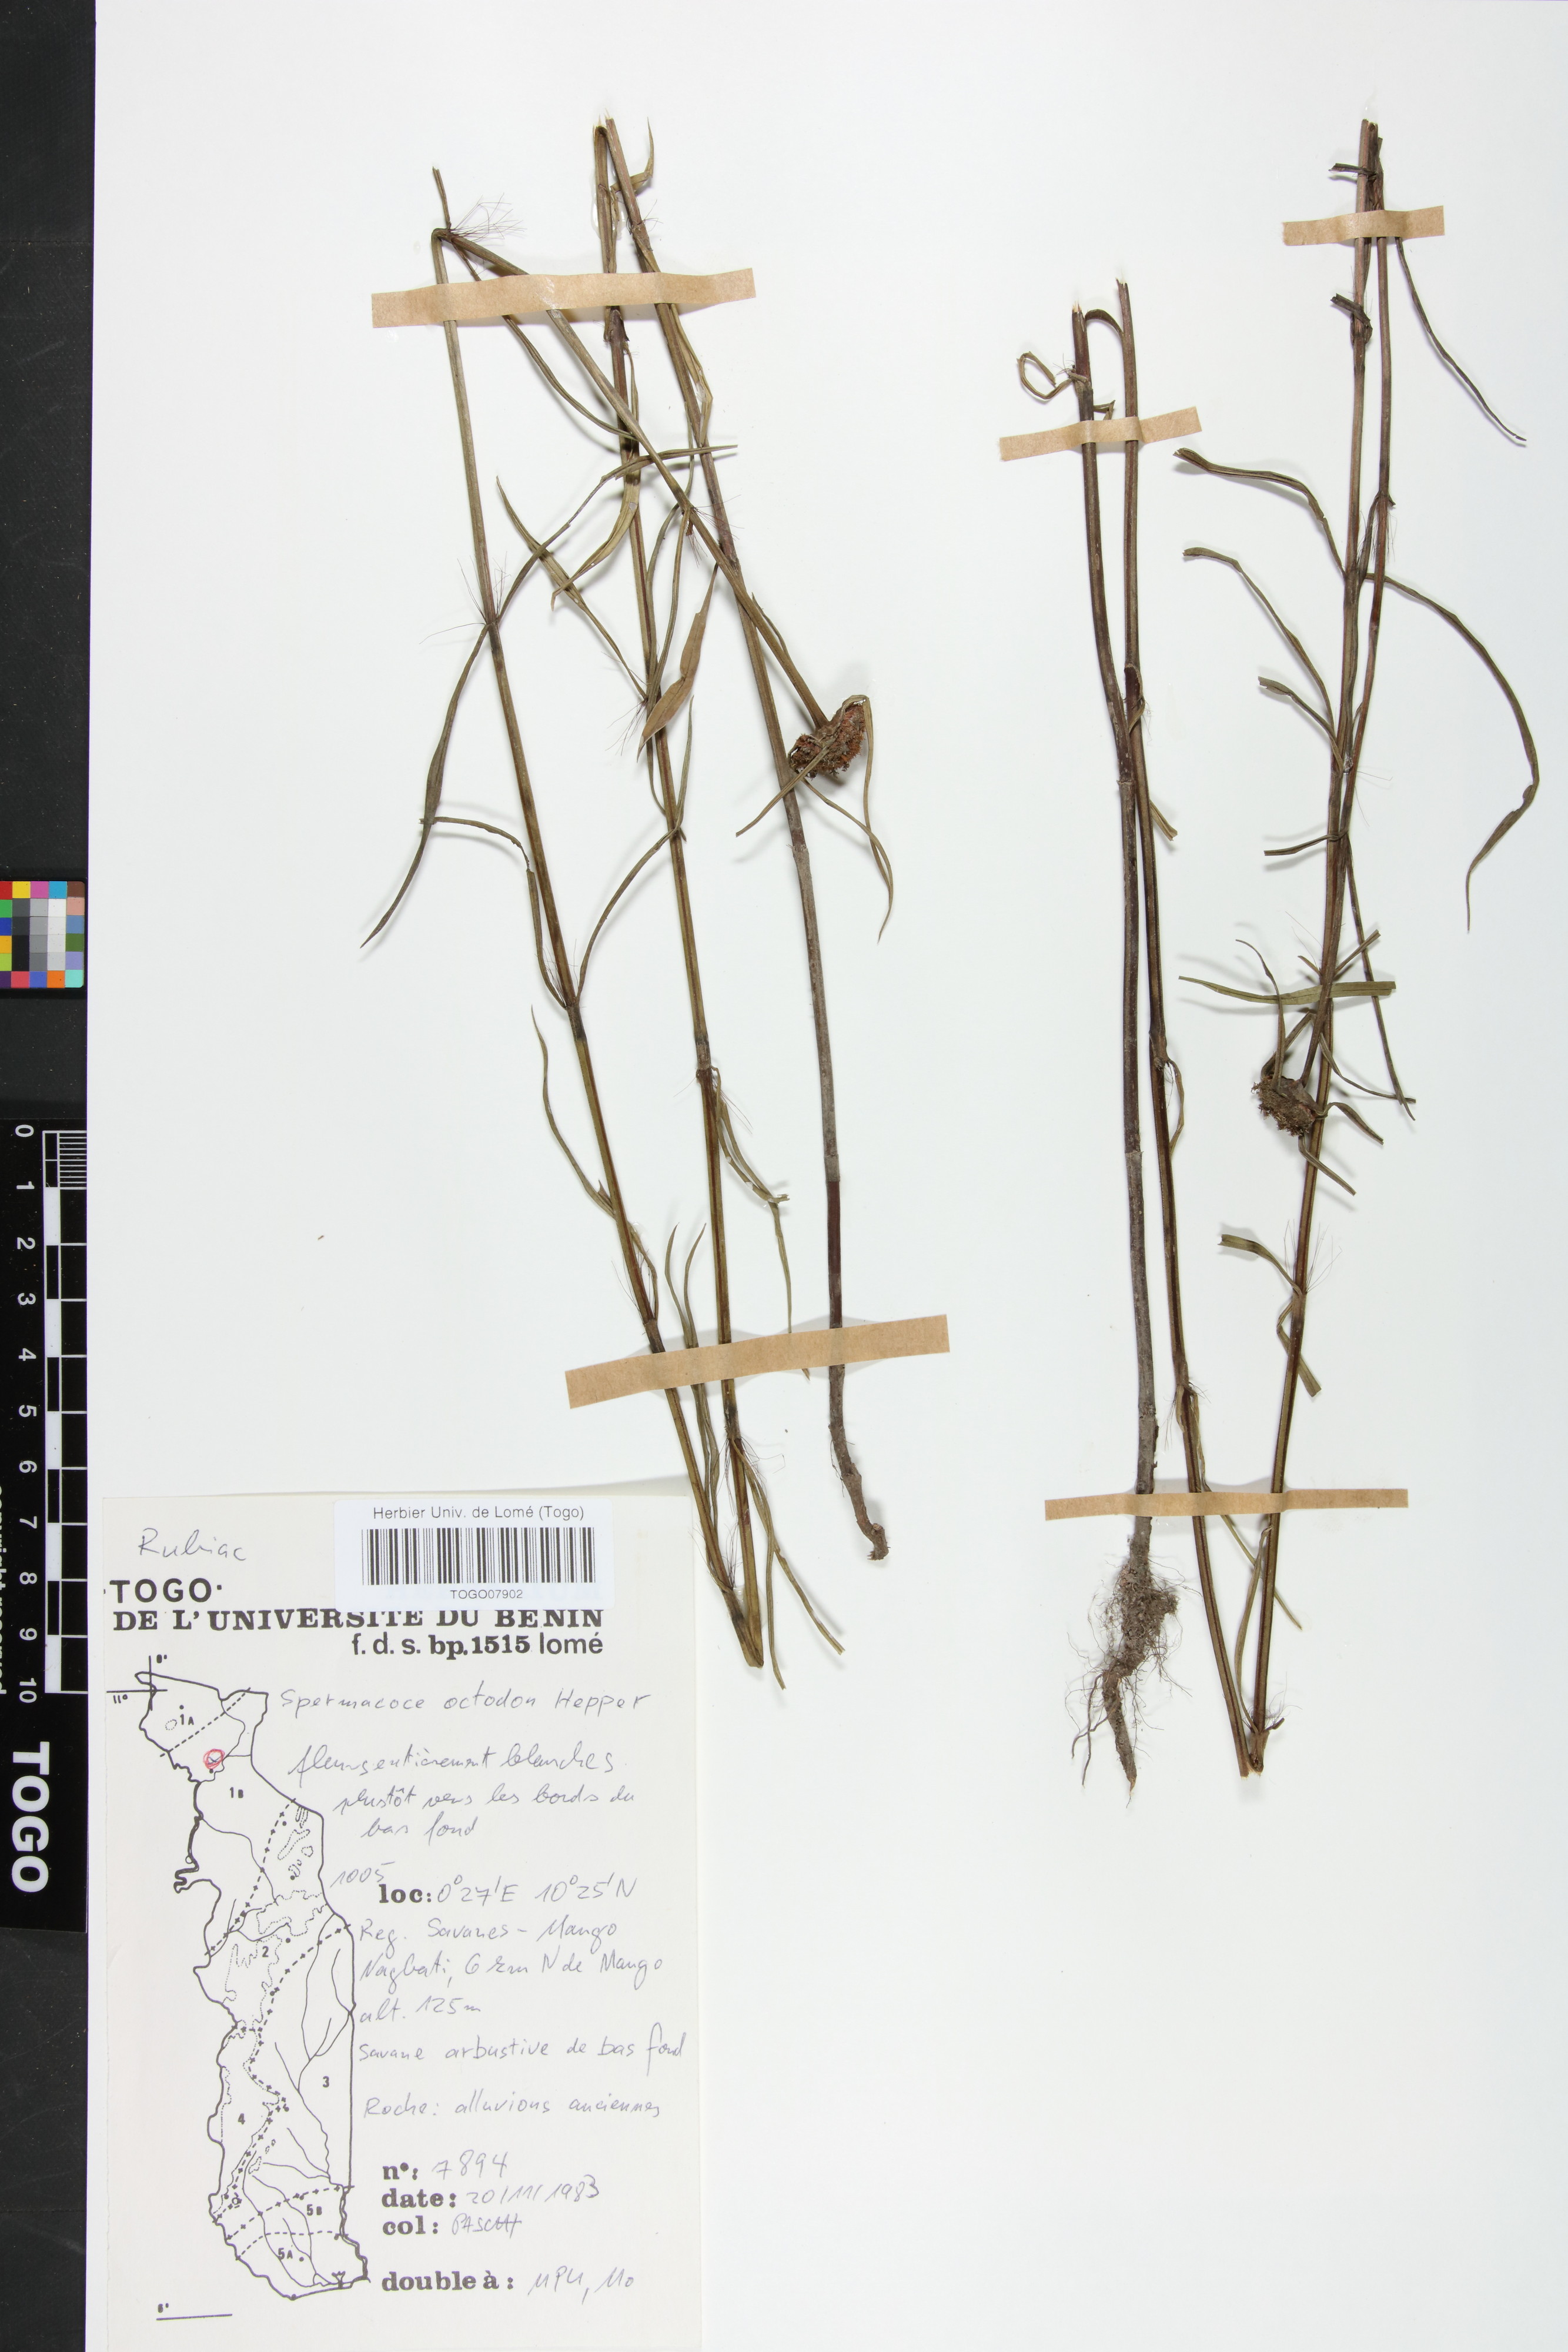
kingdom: Plantae
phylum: Tracheophyta
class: Magnoliopsida
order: Gentianales
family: Rubiaceae
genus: Spermacoce
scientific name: Spermacoce octodon
